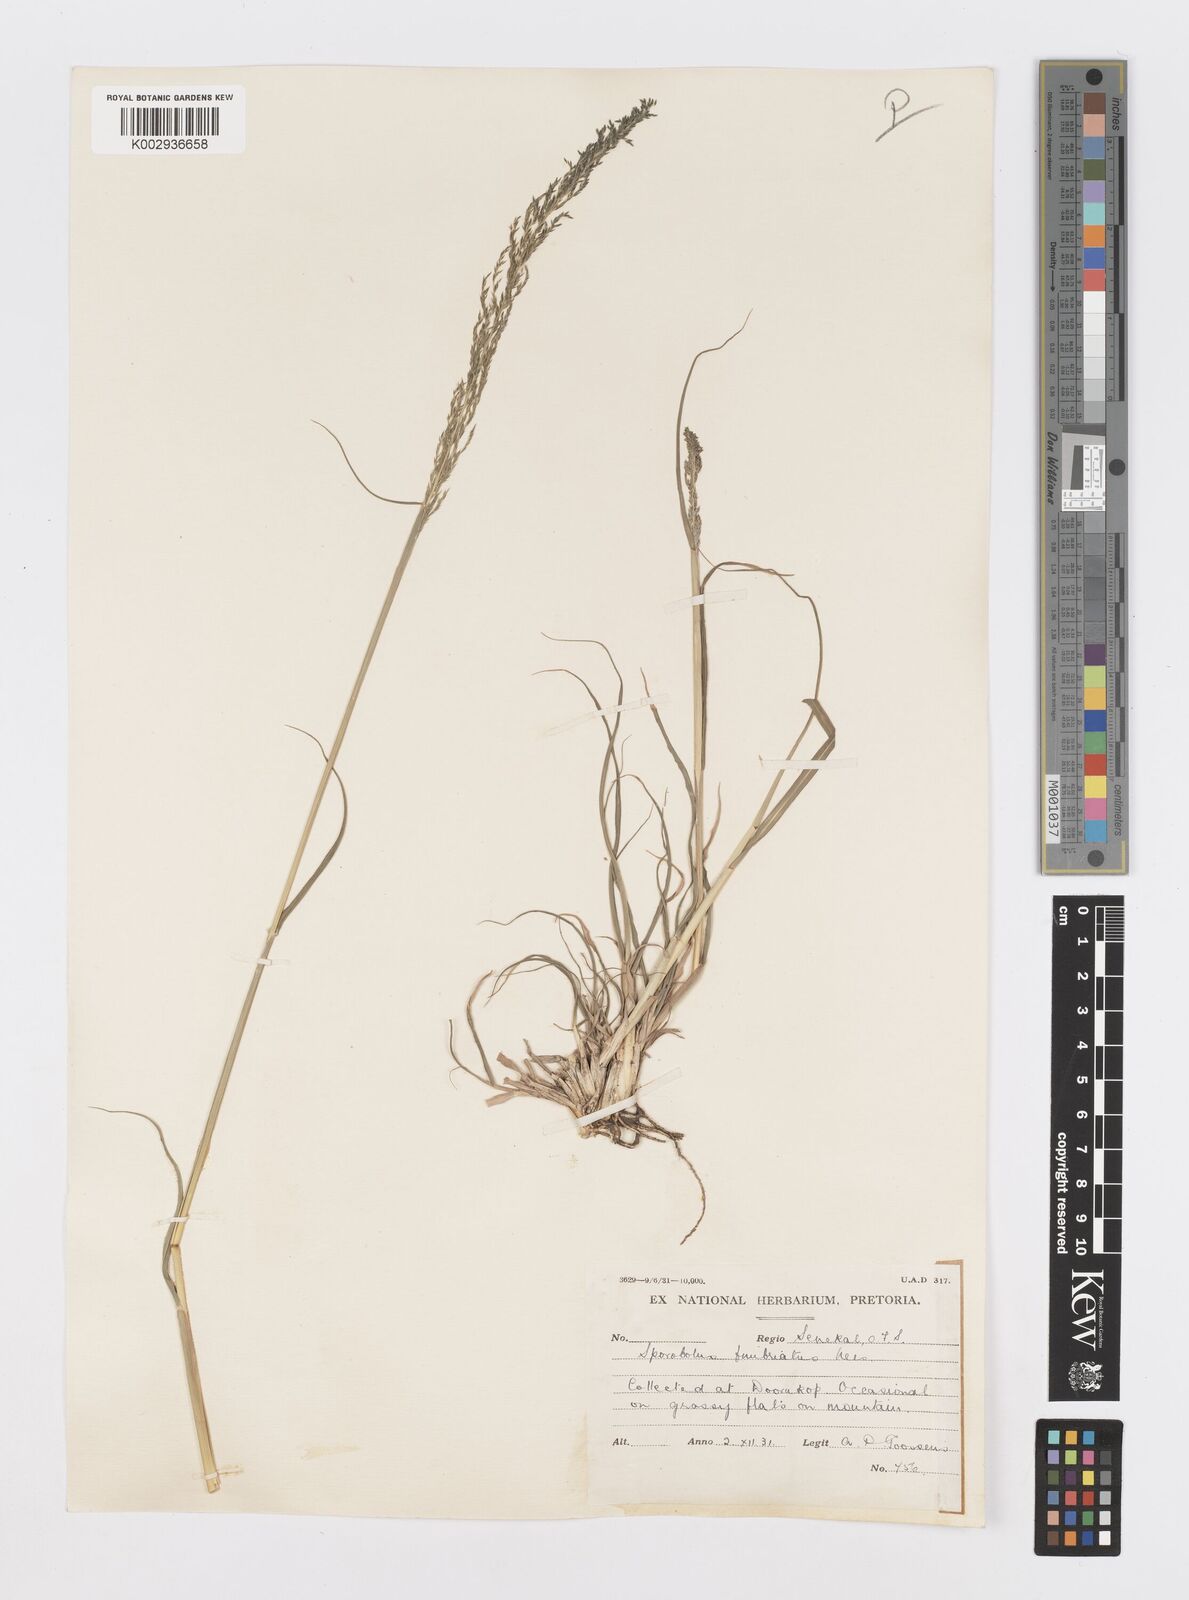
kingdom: Plantae
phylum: Tracheophyta
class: Liliopsida
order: Poales
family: Poaceae
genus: Sporobolus
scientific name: Sporobolus fimbriatus
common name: Fringed dropseed
